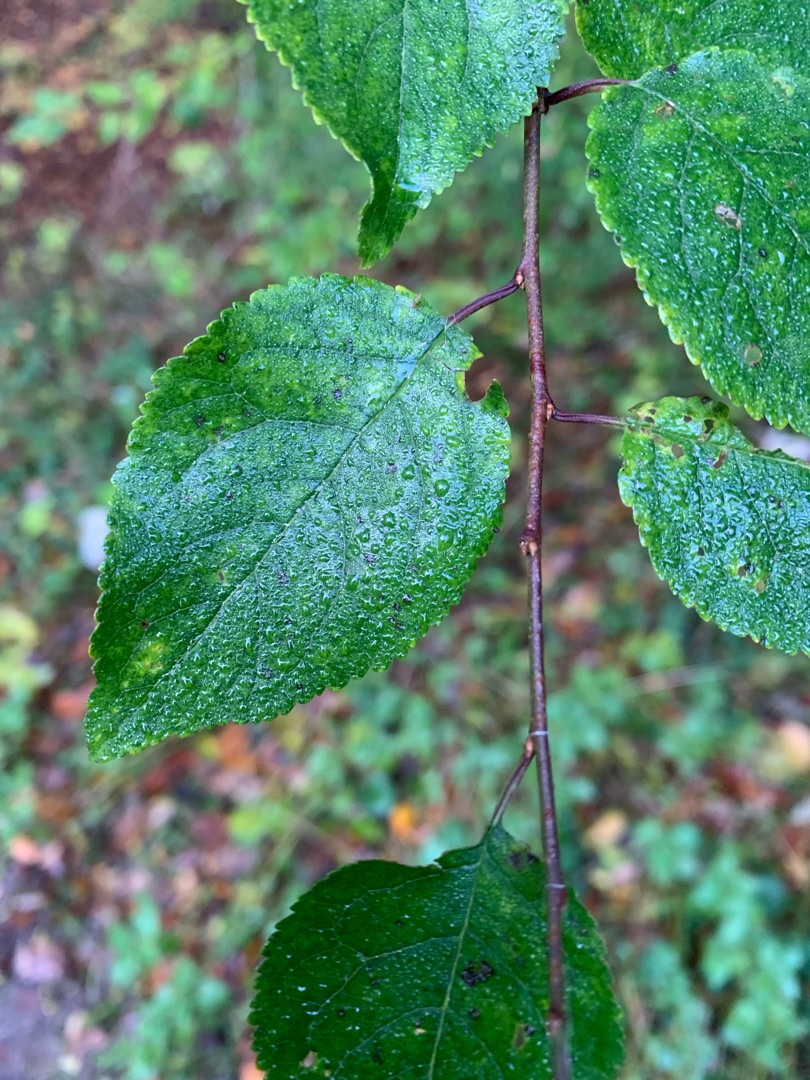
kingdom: Plantae
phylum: Tracheophyta
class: Magnoliopsida
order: Rosales
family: Rosaceae
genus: Prunus
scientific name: Prunus cerasifera
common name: Mirabel
